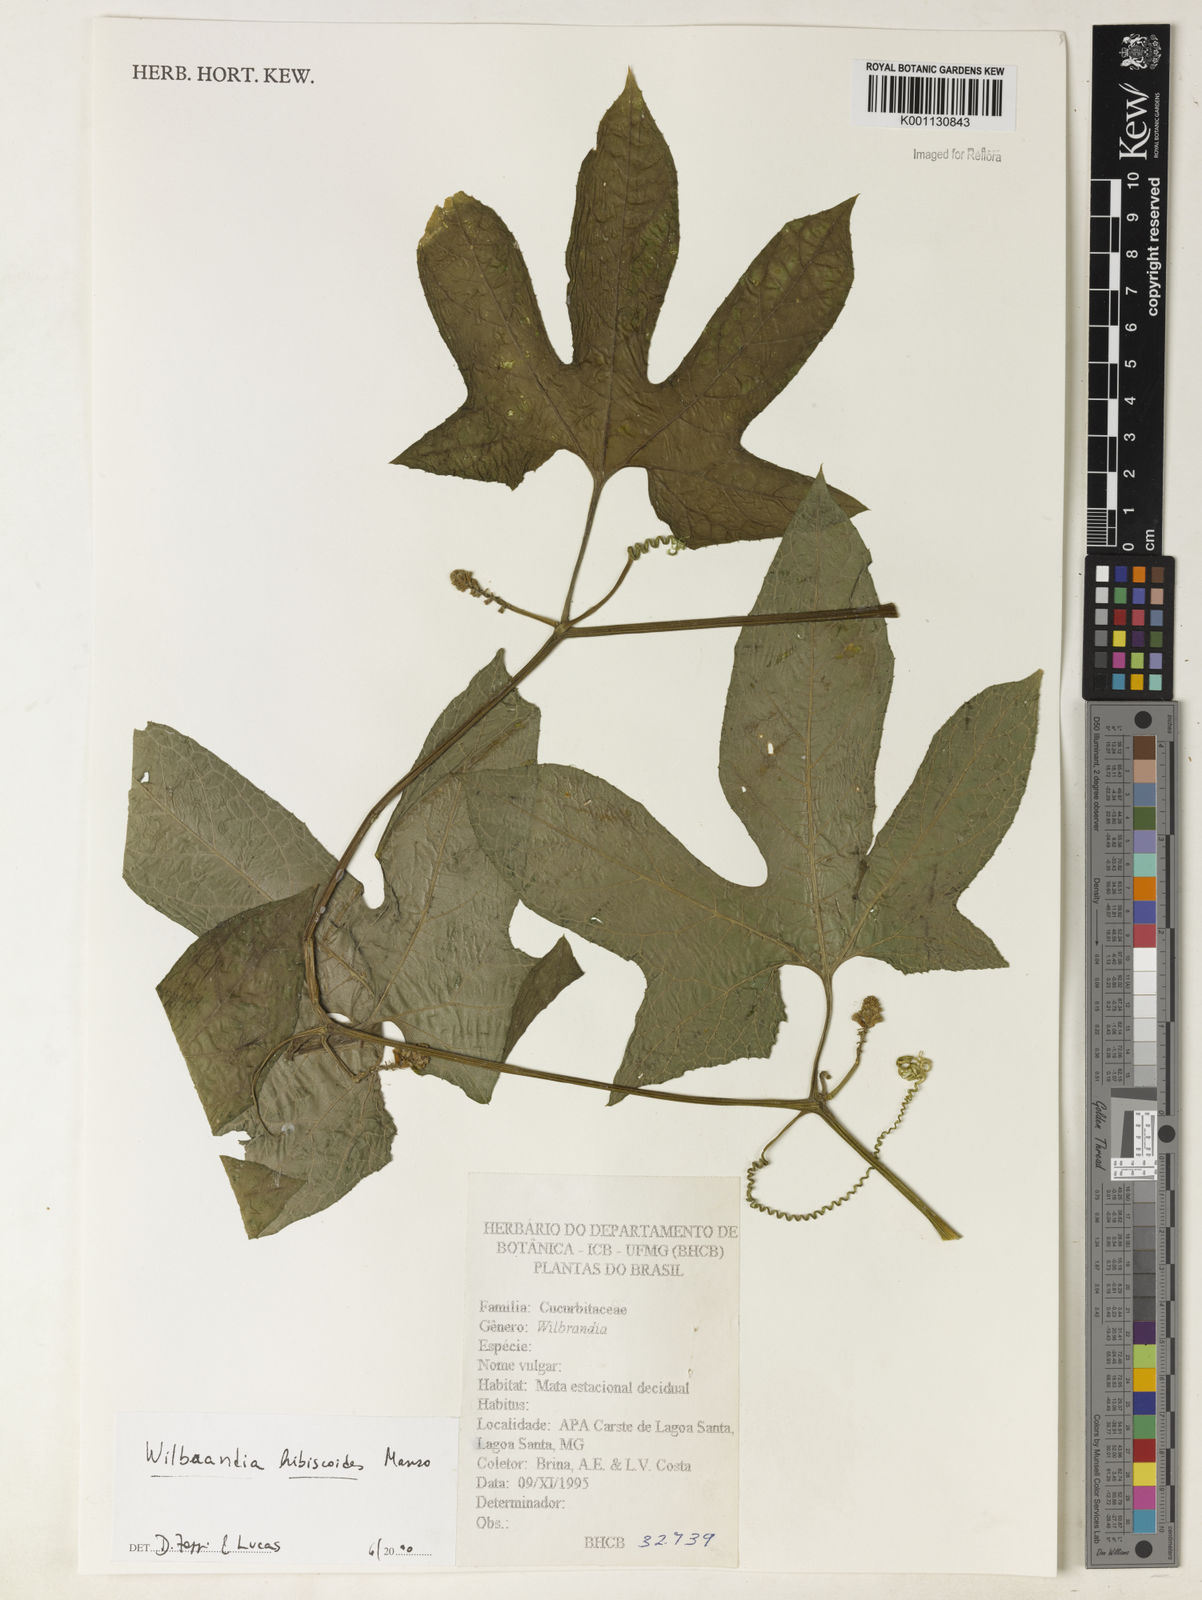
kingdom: Plantae
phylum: Tracheophyta
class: Magnoliopsida
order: Cucurbitales
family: Cucurbitaceae
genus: Wilbrandia
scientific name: Wilbrandia hibiscoides
